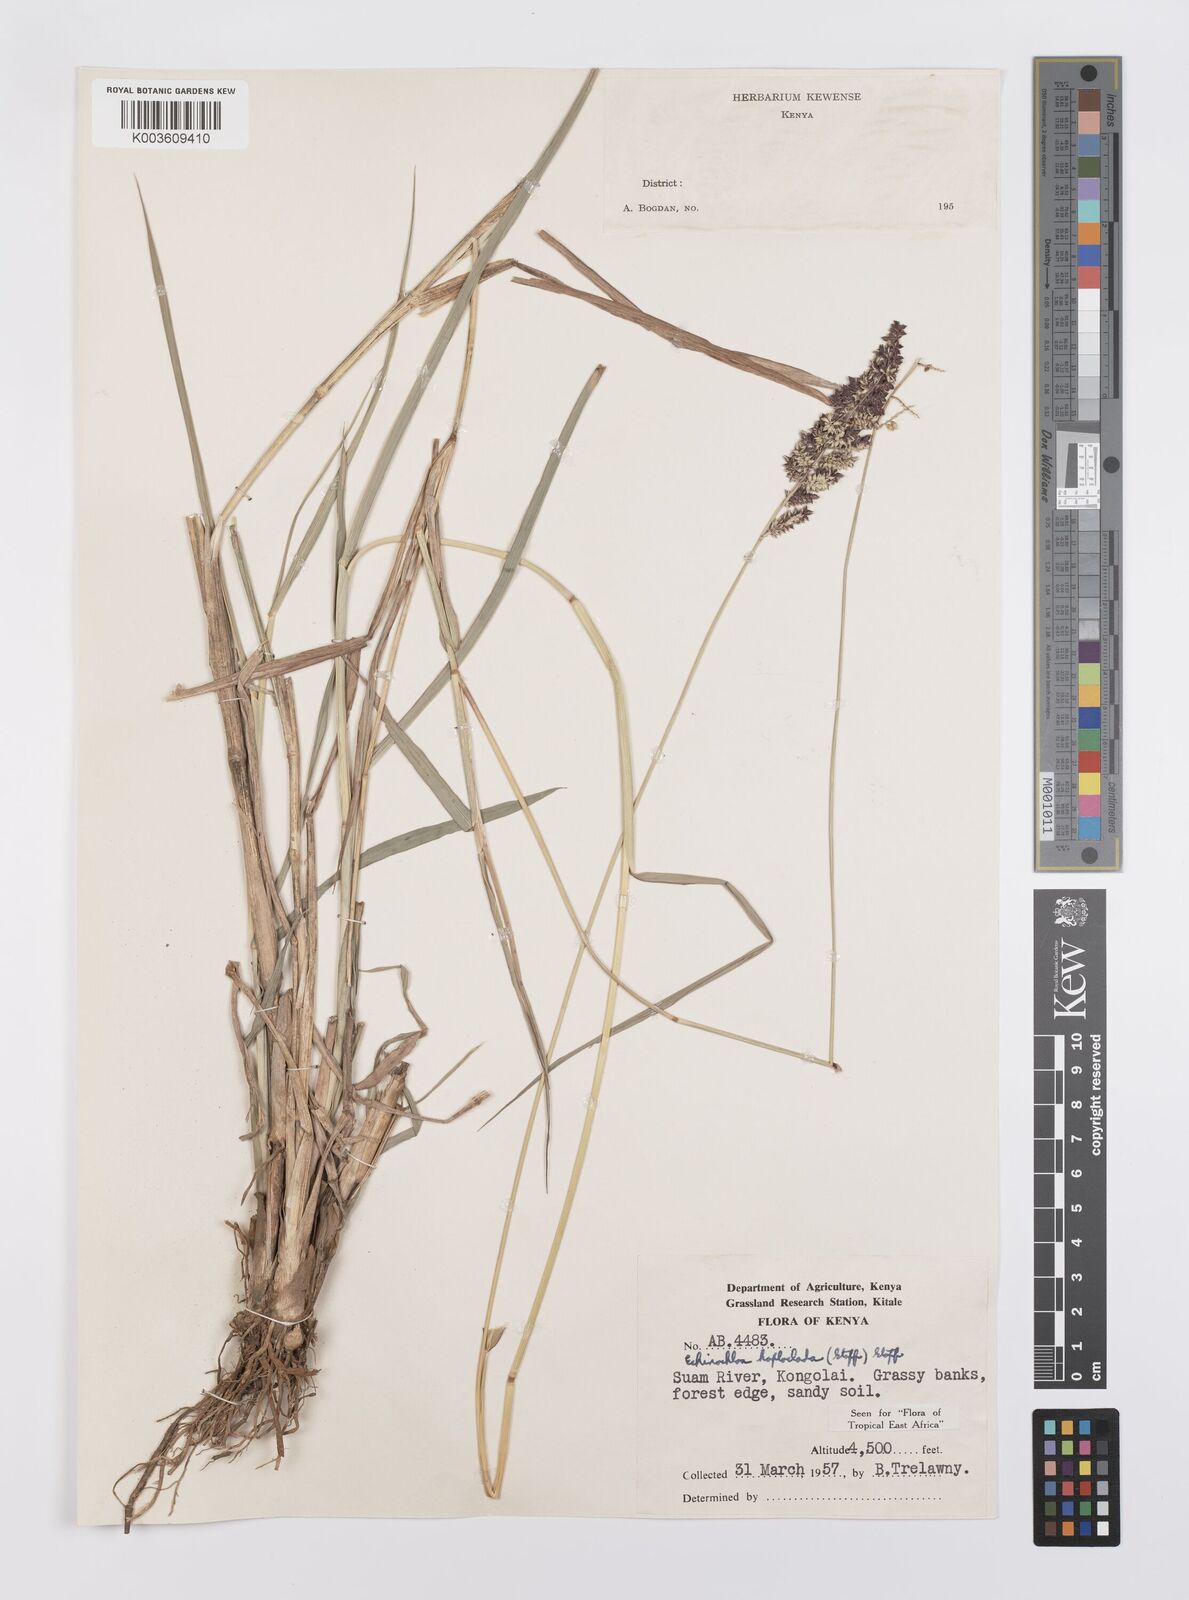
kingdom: Plantae
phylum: Tracheophyta
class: Liliopsida
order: Poales
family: Poaceae
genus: Echinochloa
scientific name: Echinochloa haploclada
